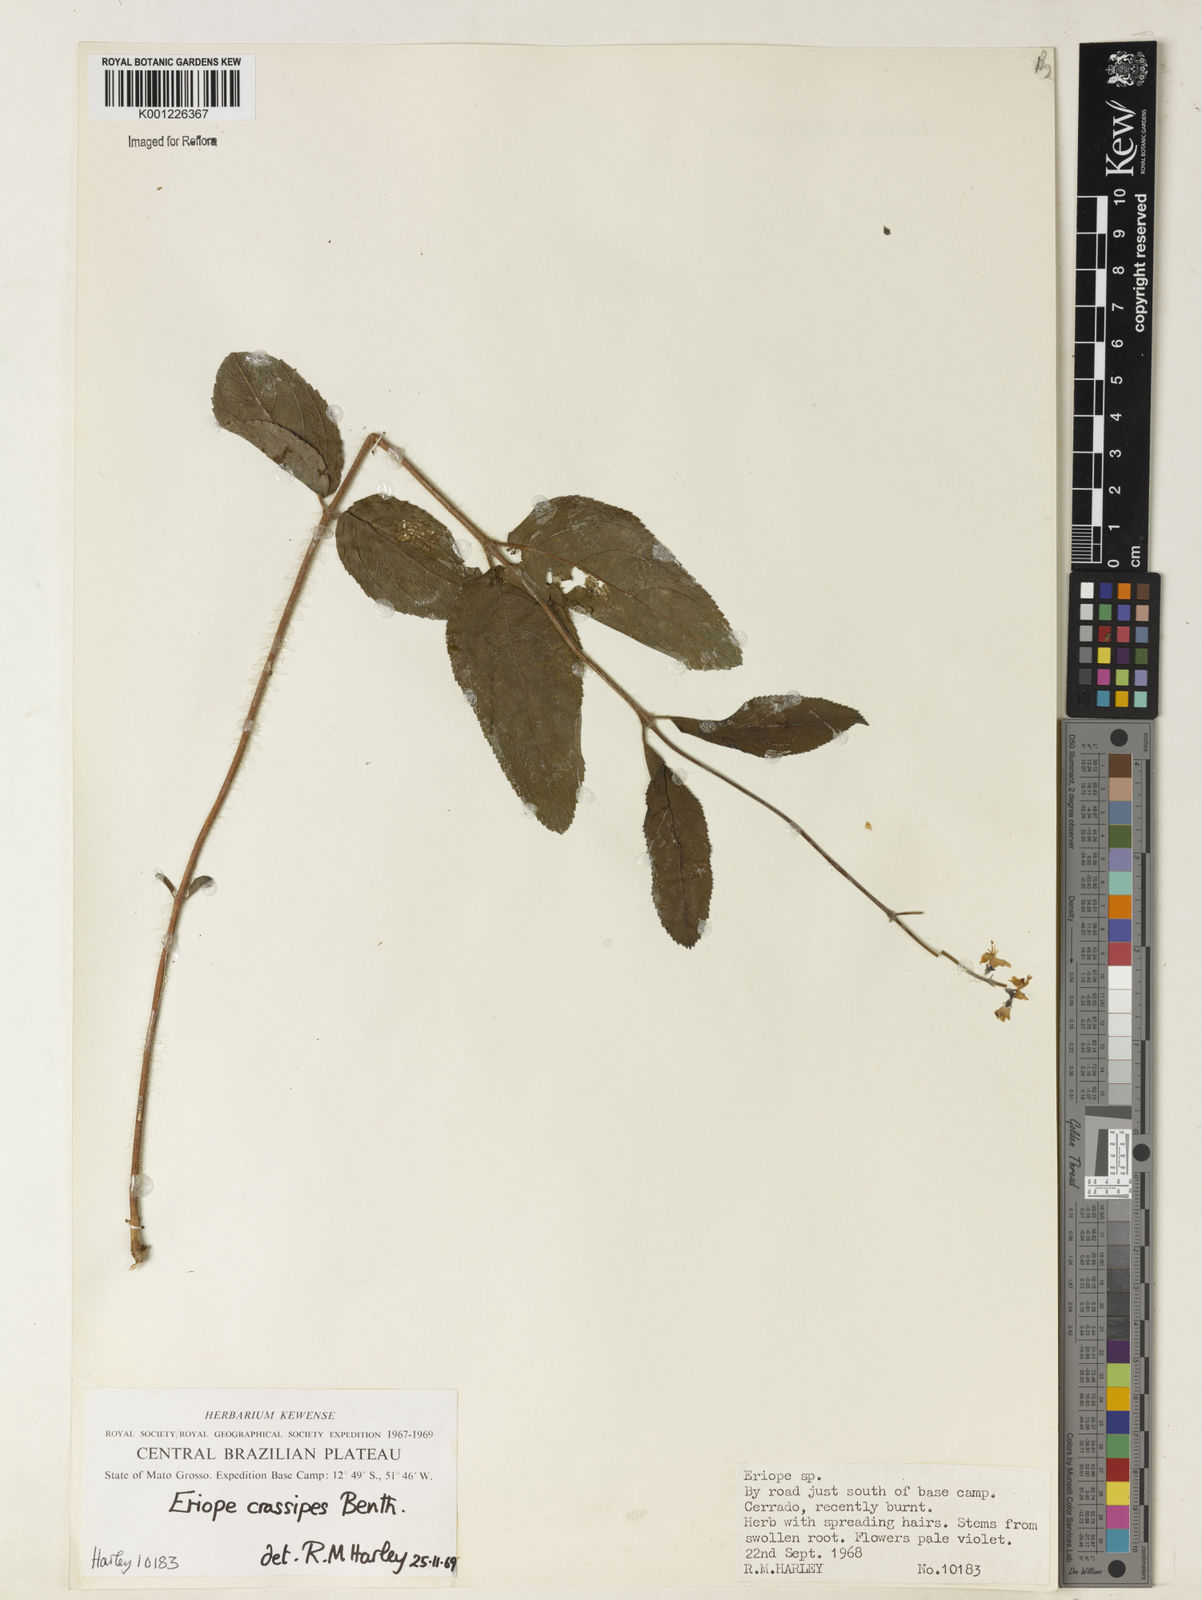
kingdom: Plantae
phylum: Tracheophyta
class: Magnoliopsida
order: Lamiales
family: Lamiaceae
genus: Eriope
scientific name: Eriope crassipes
